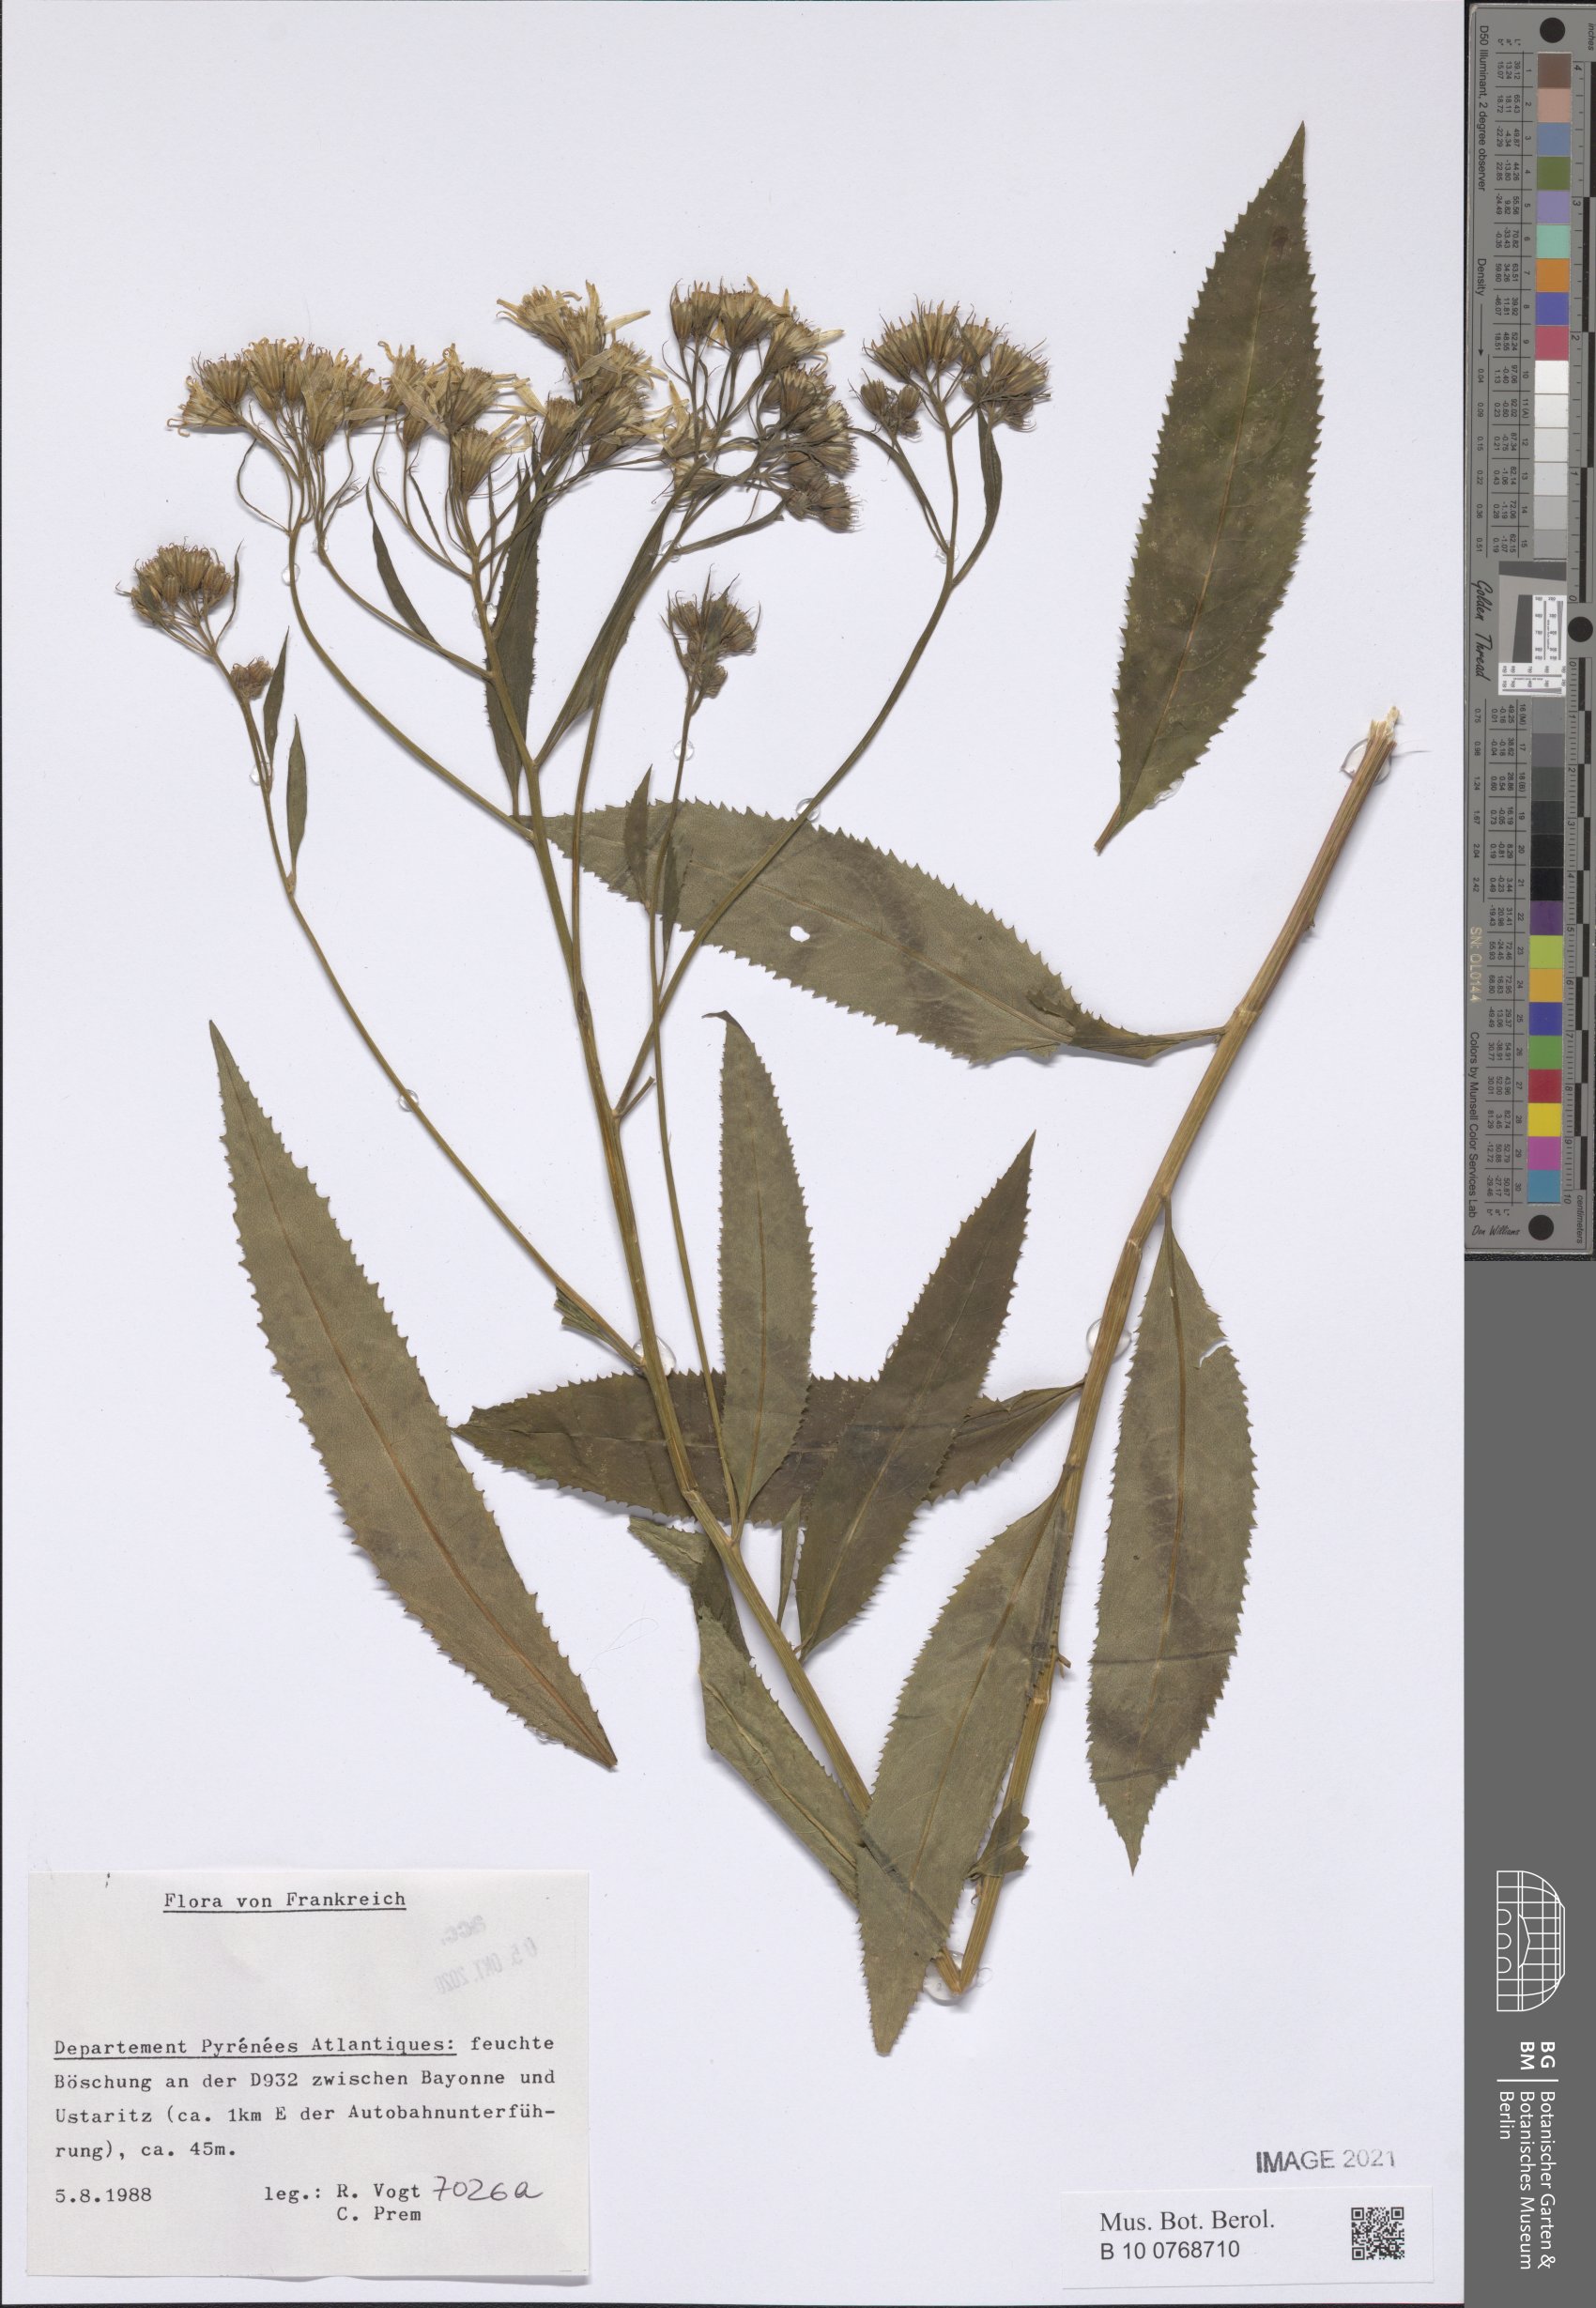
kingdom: Plantae
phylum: Tracheophyta
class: Magnoliopsida
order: Asterales
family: Asteraceae
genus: Senecio
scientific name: Senecio
